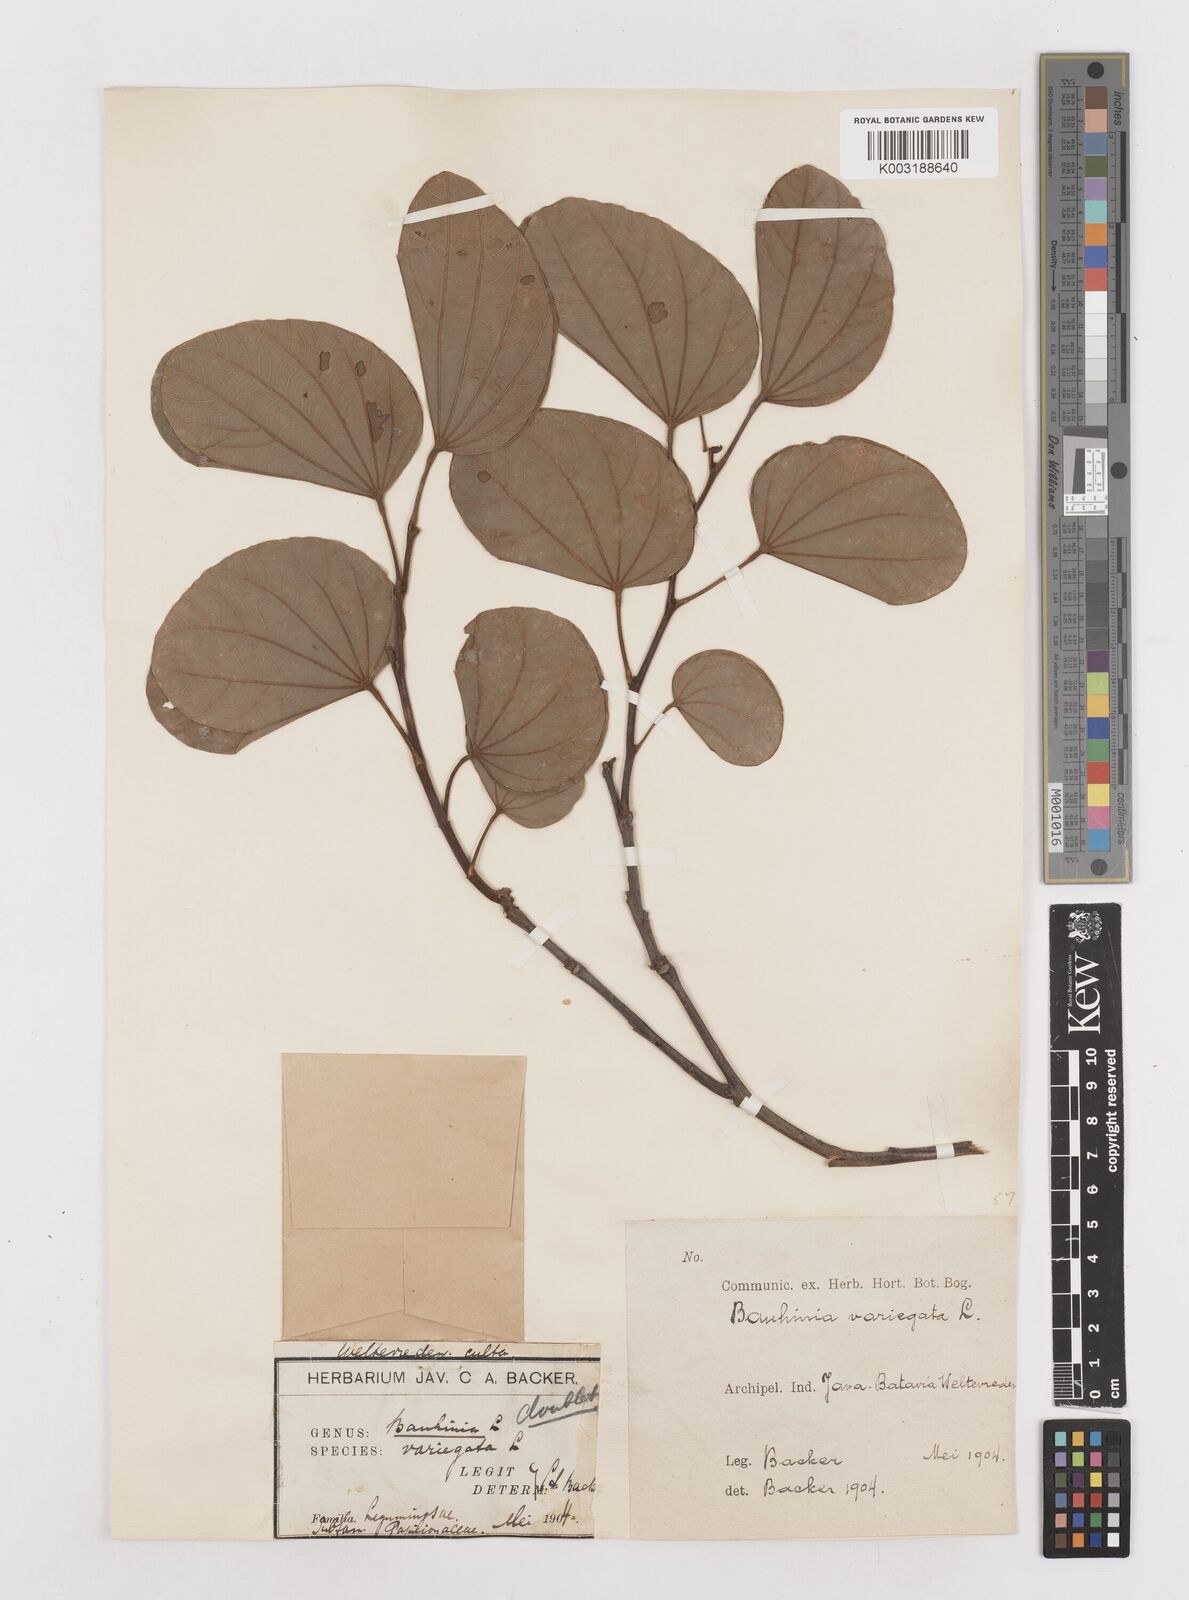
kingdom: Plantae
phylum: Tracheophyta
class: Magnoliopsida
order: Fabales
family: Fabaceae
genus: Bauhinia
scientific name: Bauhinia variegata
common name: Mountain ebony
